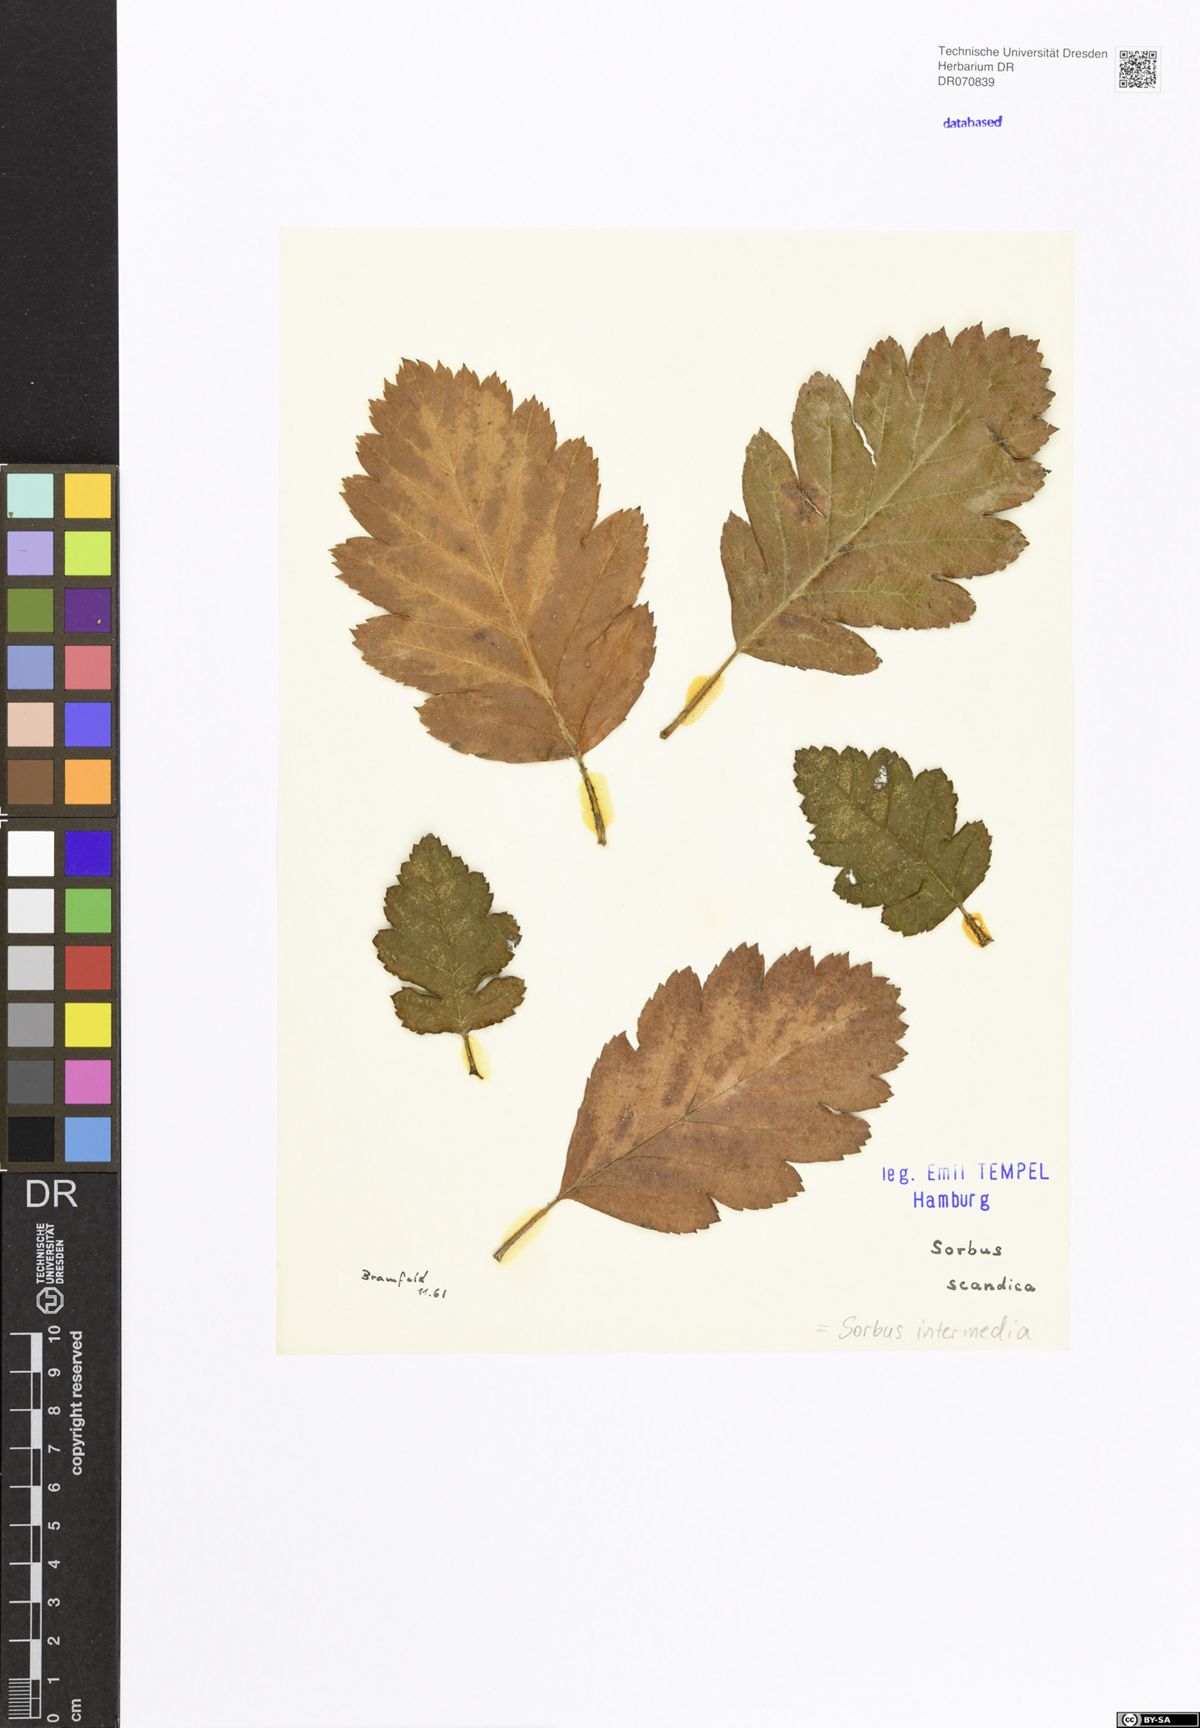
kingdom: Plantae
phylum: Tracheophyta
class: Magnoliopsida
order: Rosales
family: Rosaceae
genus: Scandosorbus
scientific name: Scandosorbus intermedia
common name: Swedish whitebeam
